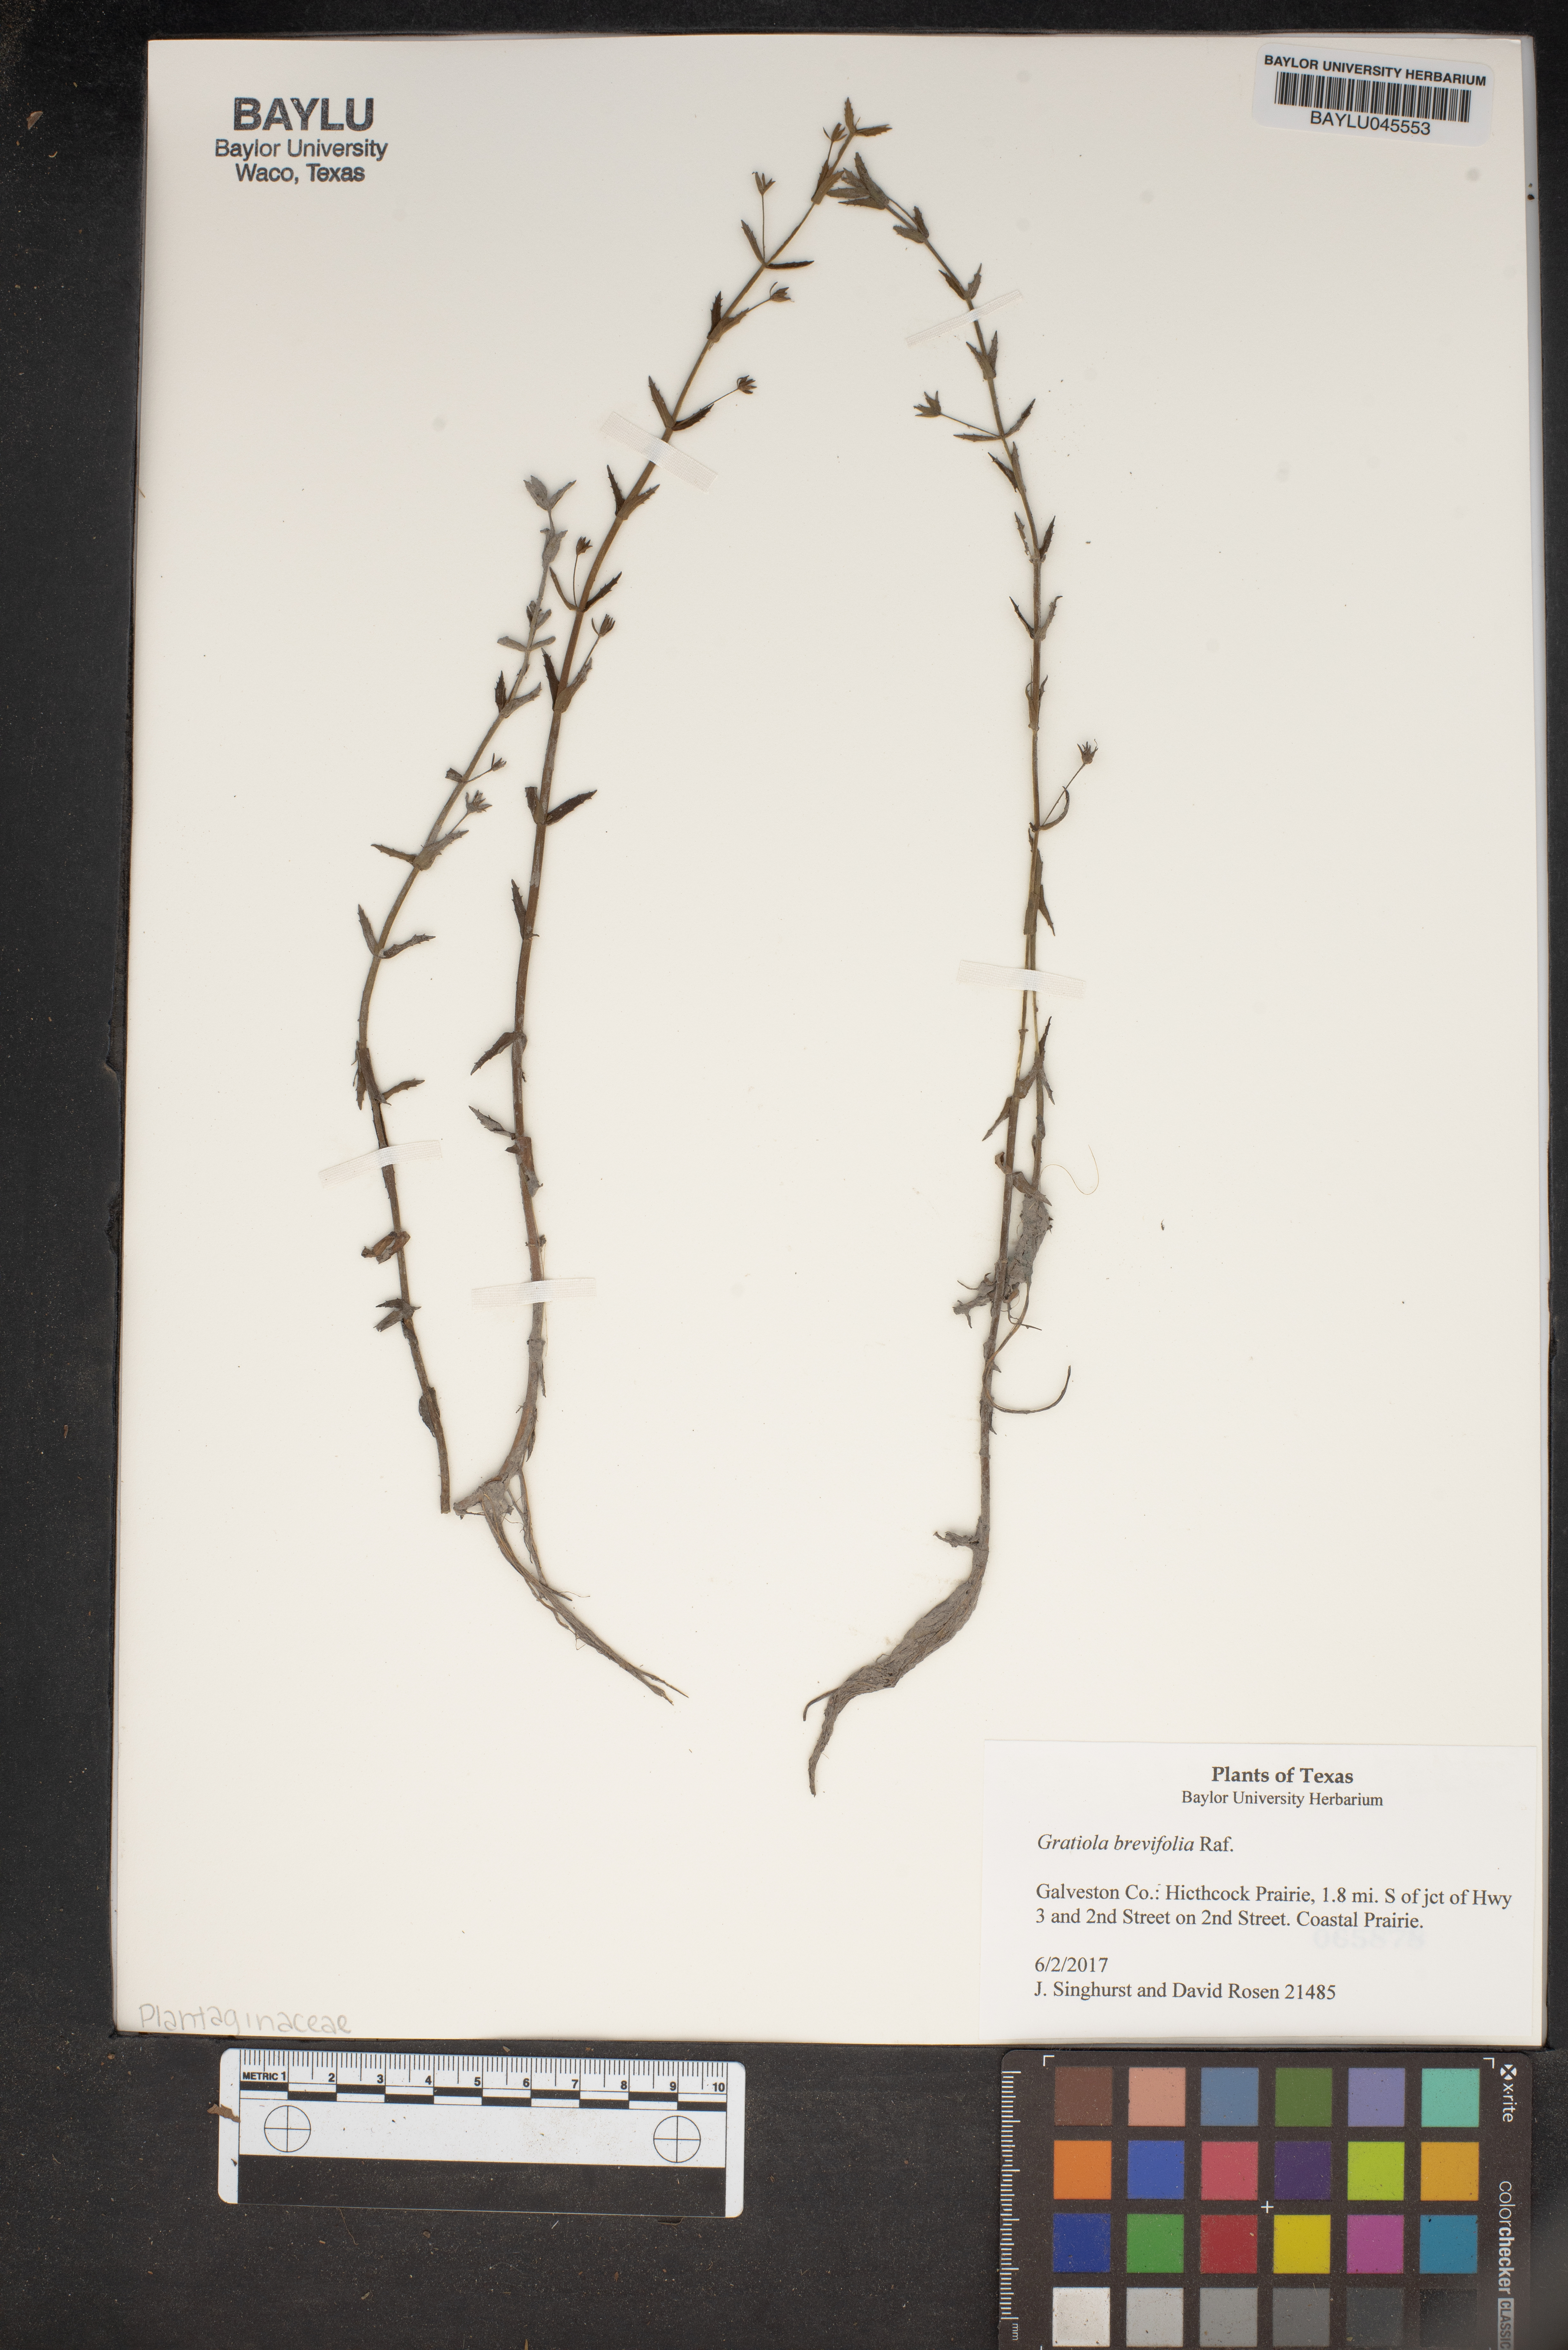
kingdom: Plantae
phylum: Tracheophyta
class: Magnoliopsida
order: Lamiales
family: Plantaginaceae
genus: Gratiola
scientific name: Gratiola brevifolia
